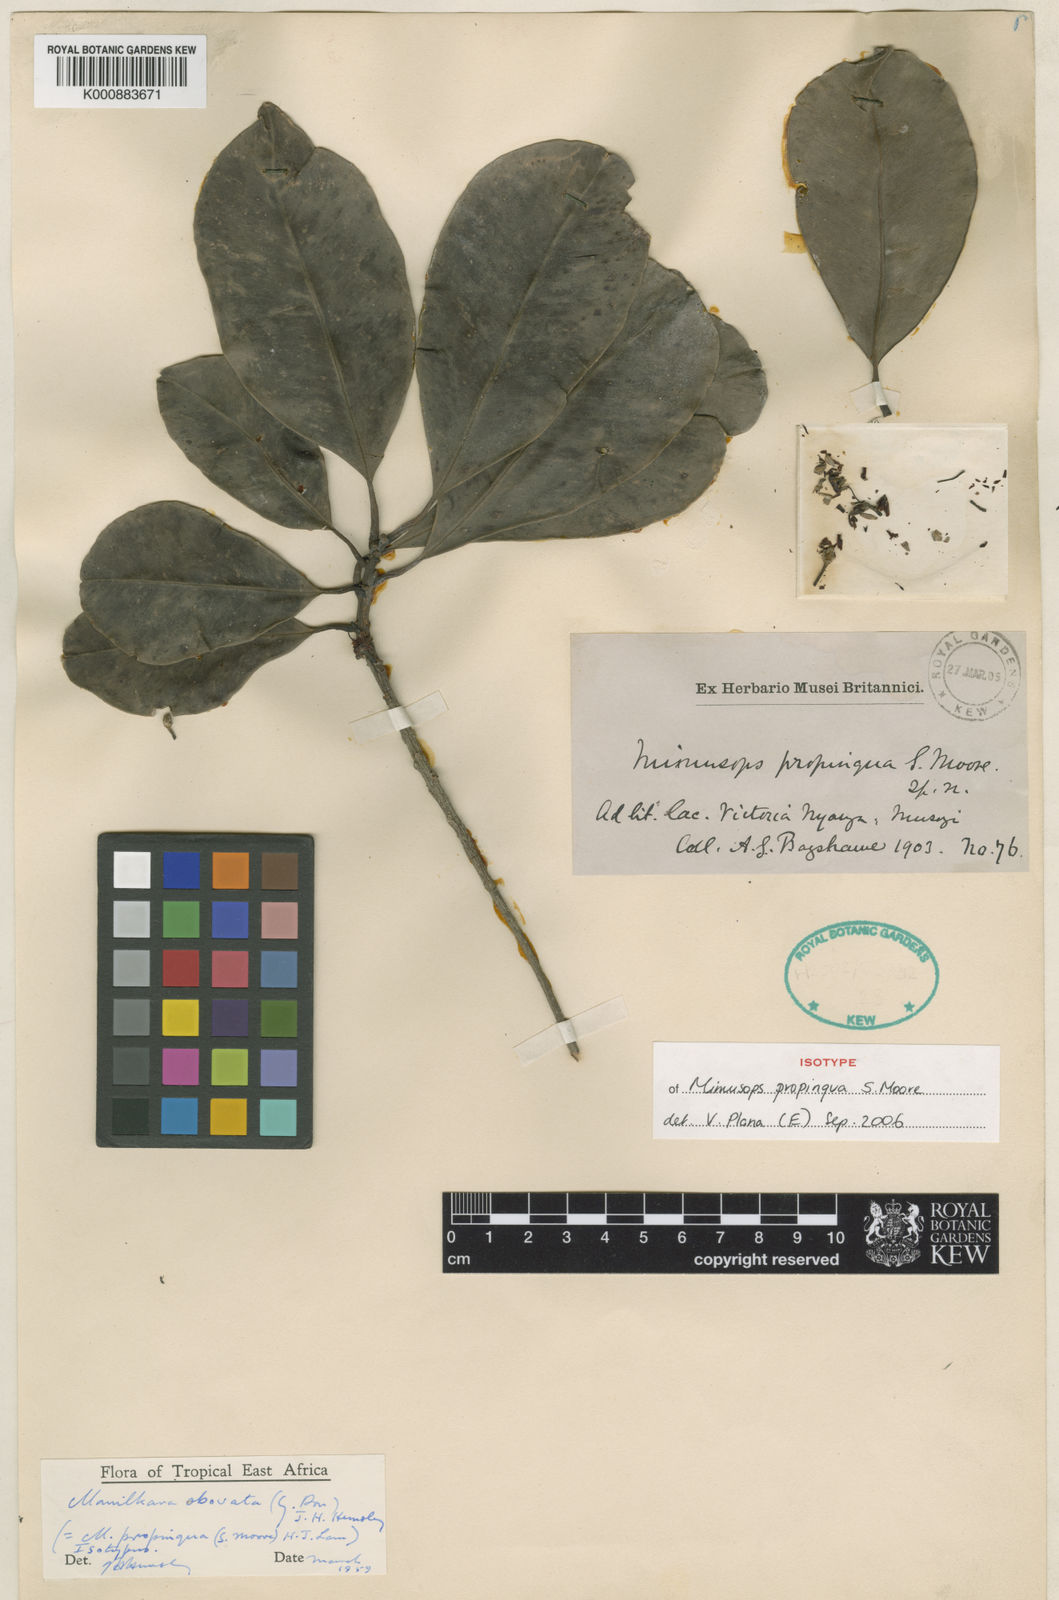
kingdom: Plantae
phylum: Tracheophyta
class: Magnoliopsida
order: Ericales
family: Sapotaceae
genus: Manilkara
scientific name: Manilkara obovata
